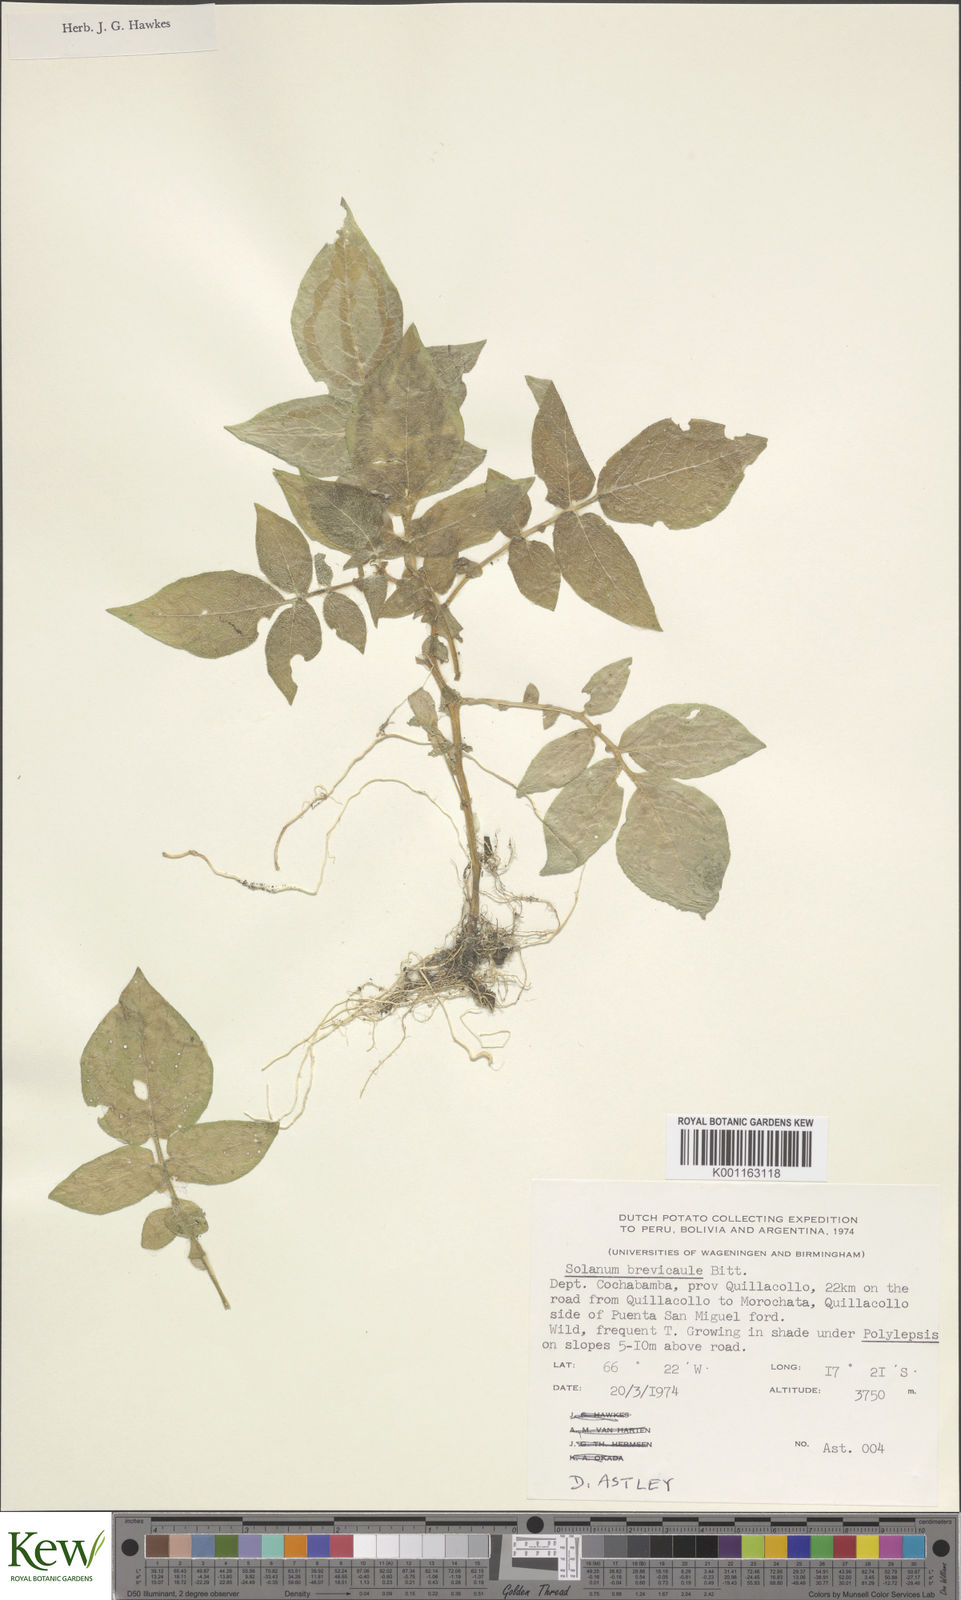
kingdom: Plantae
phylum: Tracheophyta
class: Magnoliopsida
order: Solanales
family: Solanaceae
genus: Solanum
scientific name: Solanum brevicaule
